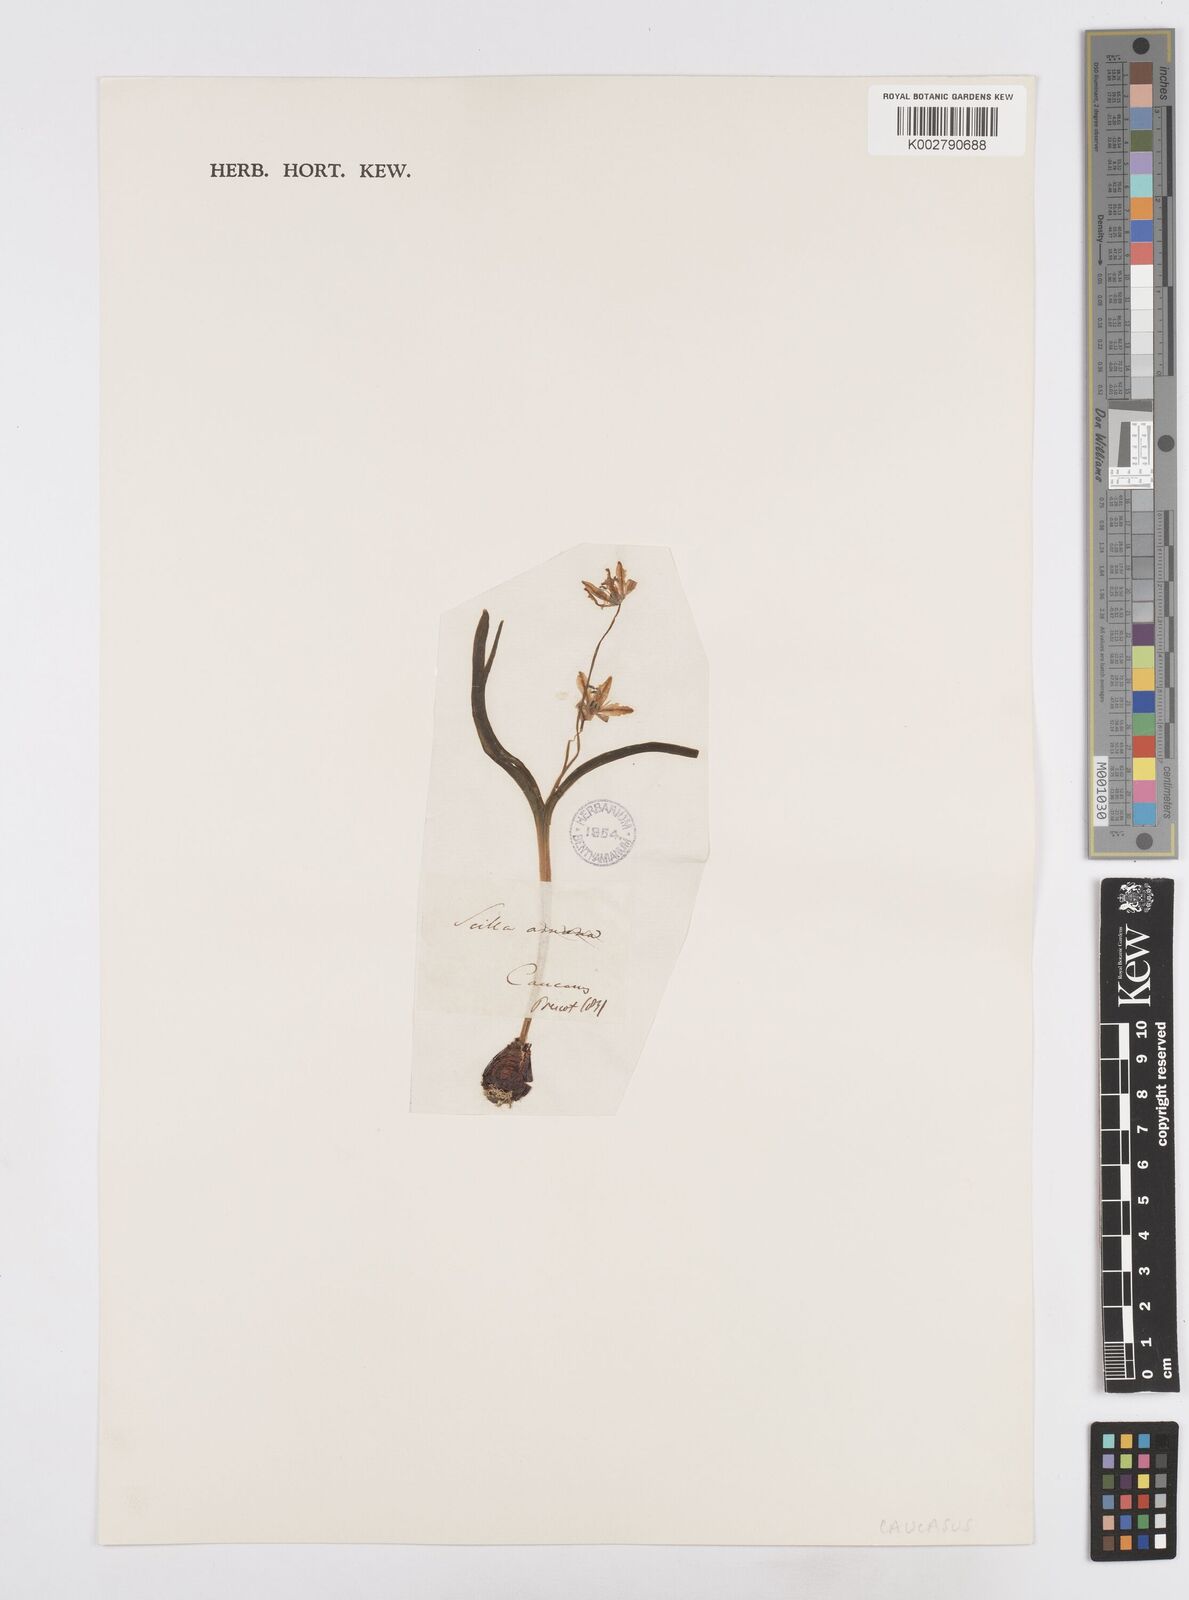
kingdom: Plantae
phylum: Tracheophyta
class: Liliopsida
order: Asparagales
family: Asparagaceae
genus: Scilla
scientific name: Scilla siberica
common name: Siberian squill
